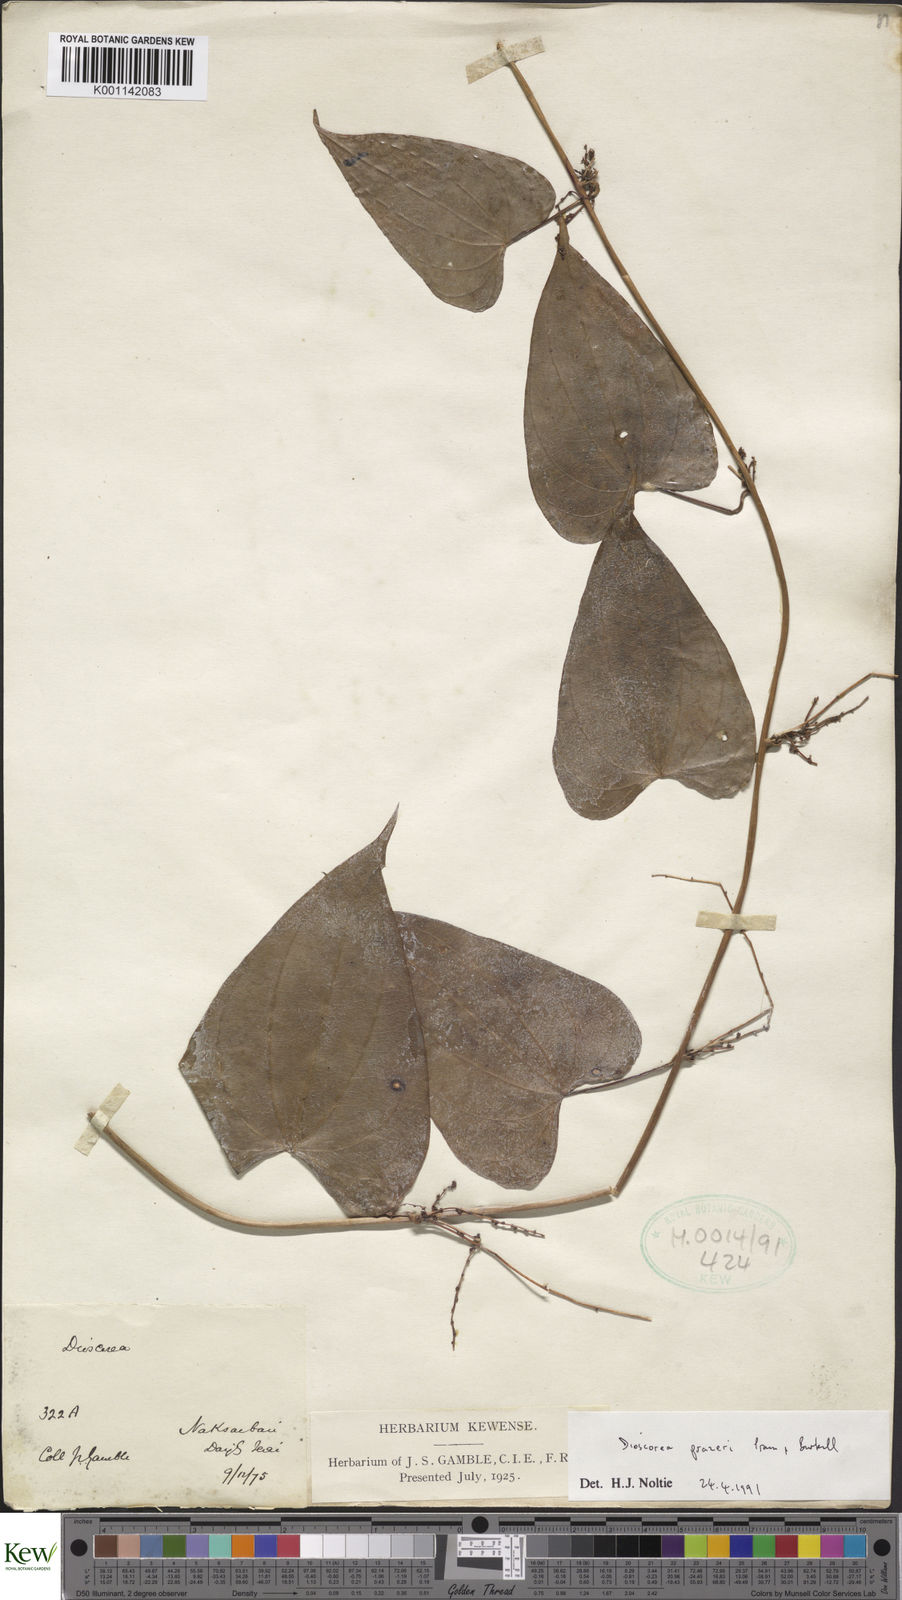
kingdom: Plantae
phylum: Tracheophyta
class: Liliopsida
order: Dioscoreales
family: Dioscoreaceae
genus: Dioscorea
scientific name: Dioscorea prazeri
